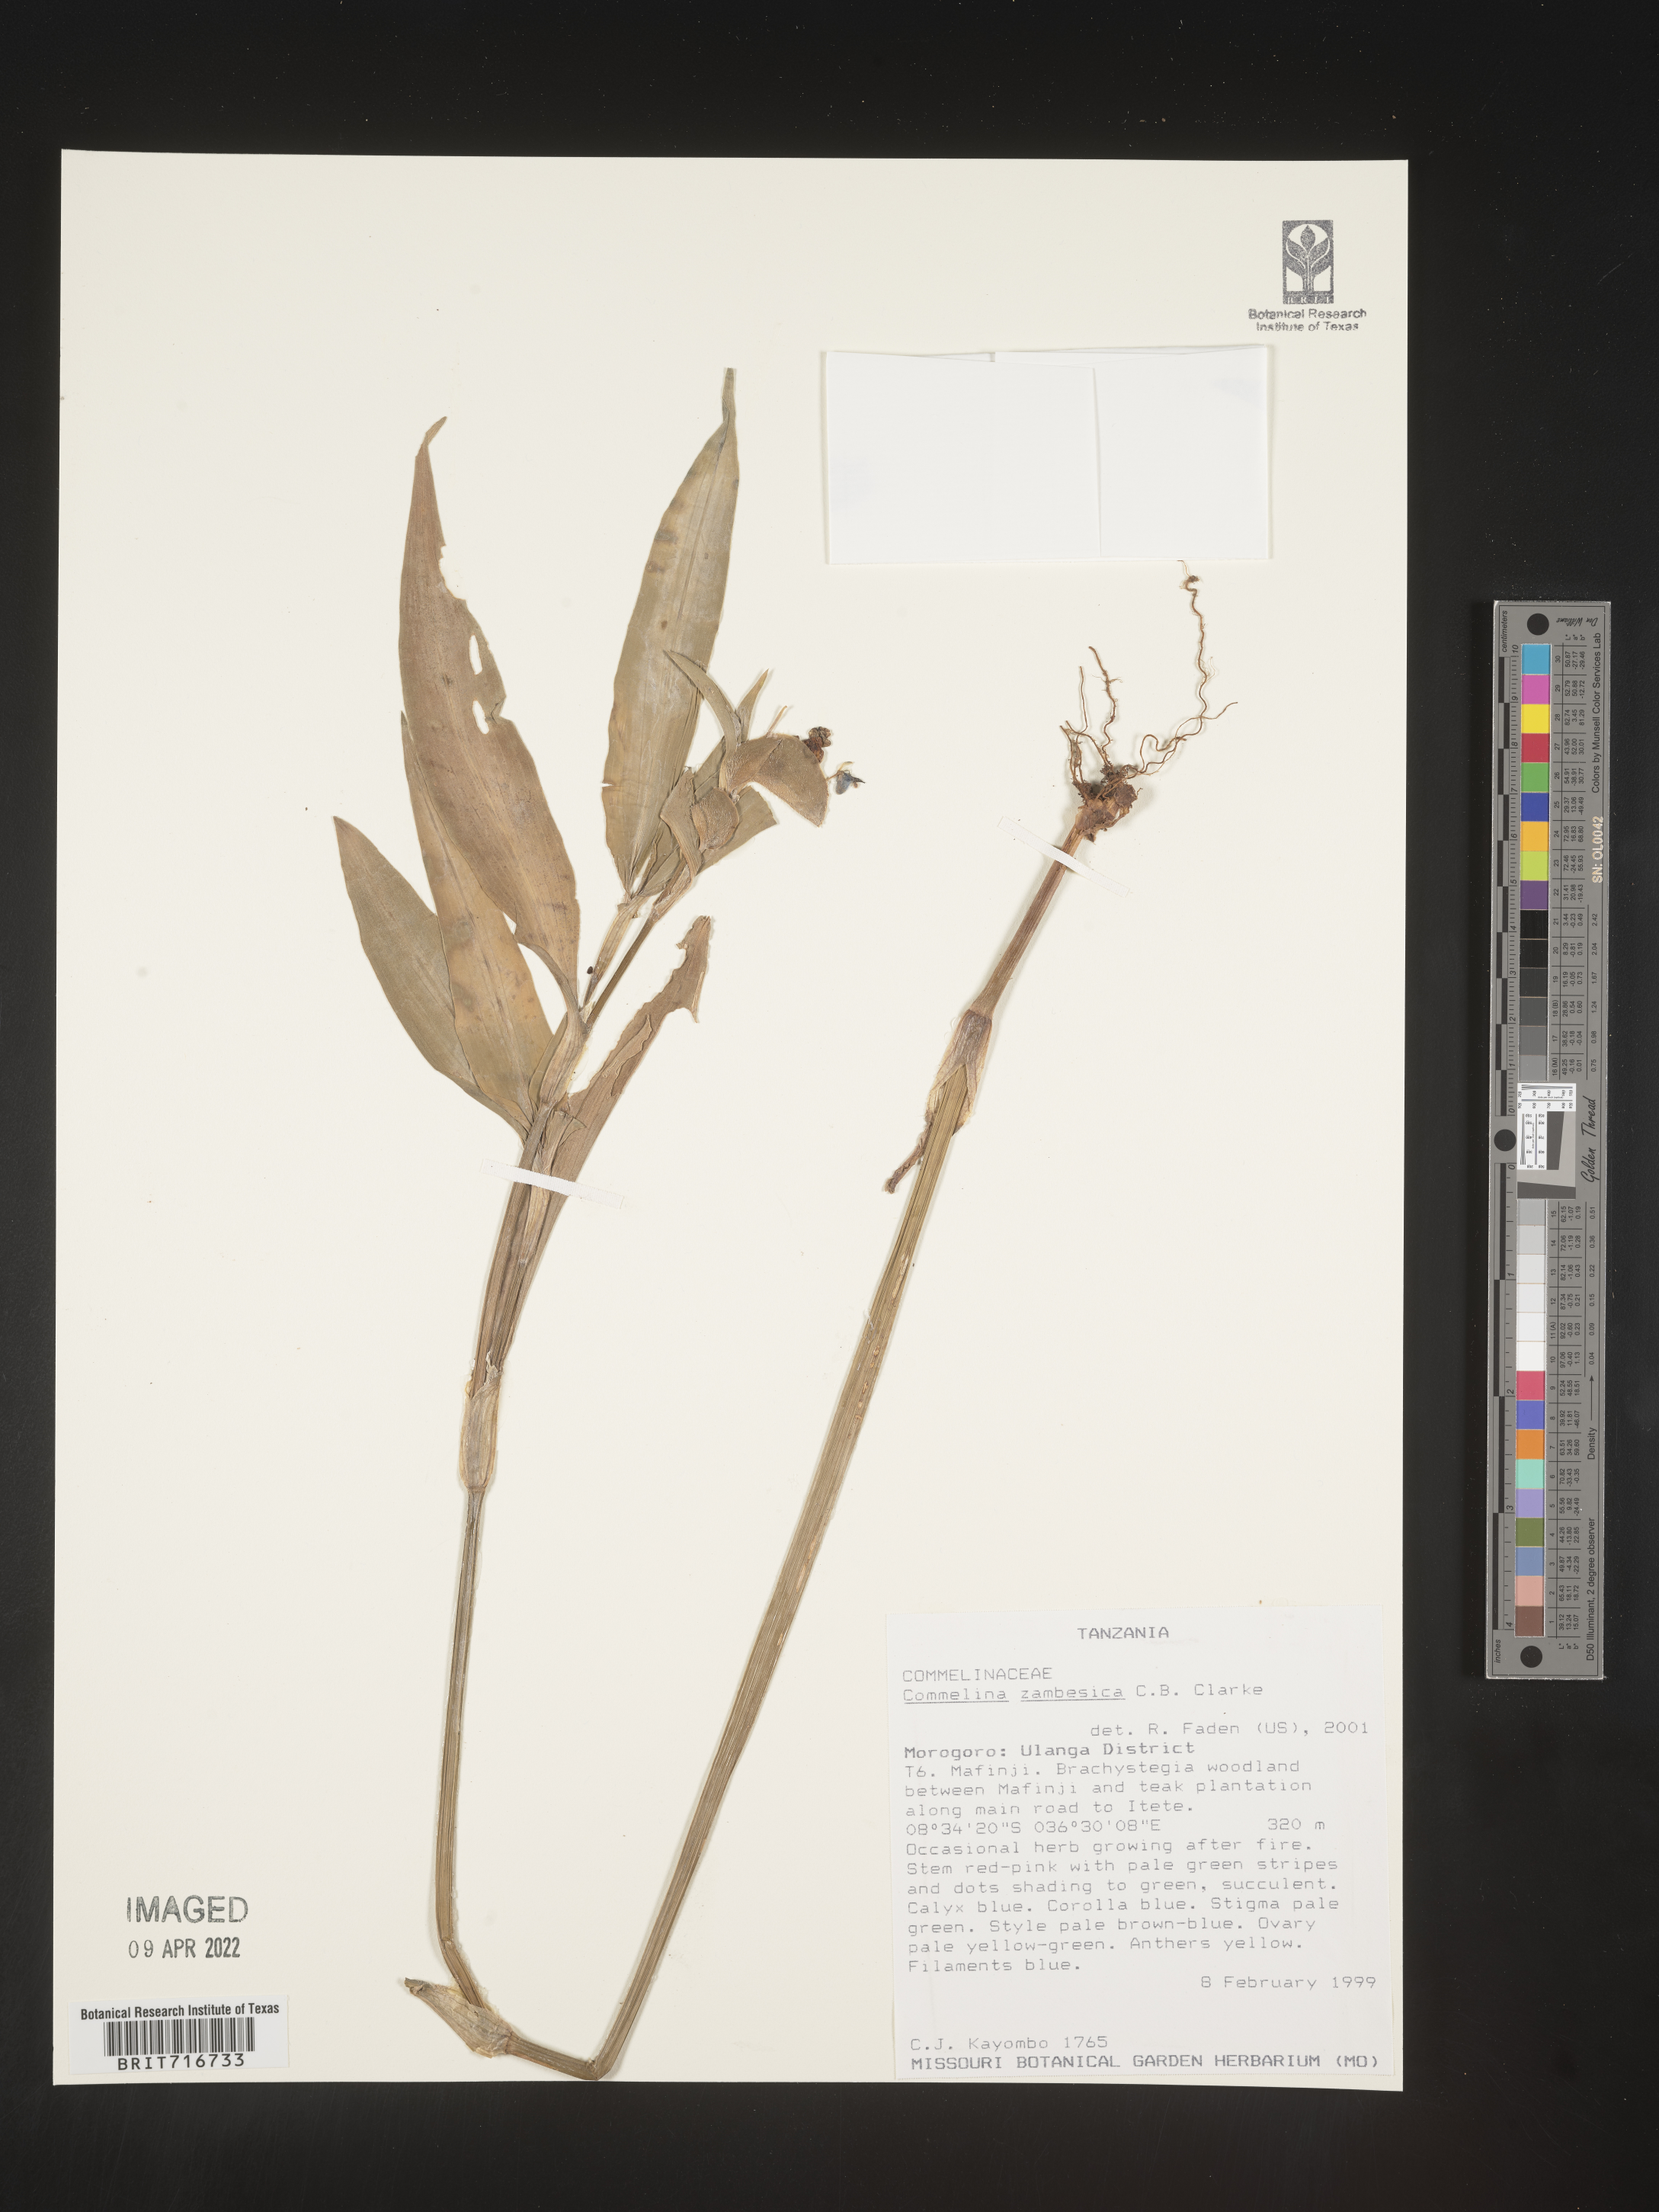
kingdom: Plantae
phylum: Tracheophyta
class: Liliopsida
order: Commelinales
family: Commelinaceae
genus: Commelina
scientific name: Commelina
